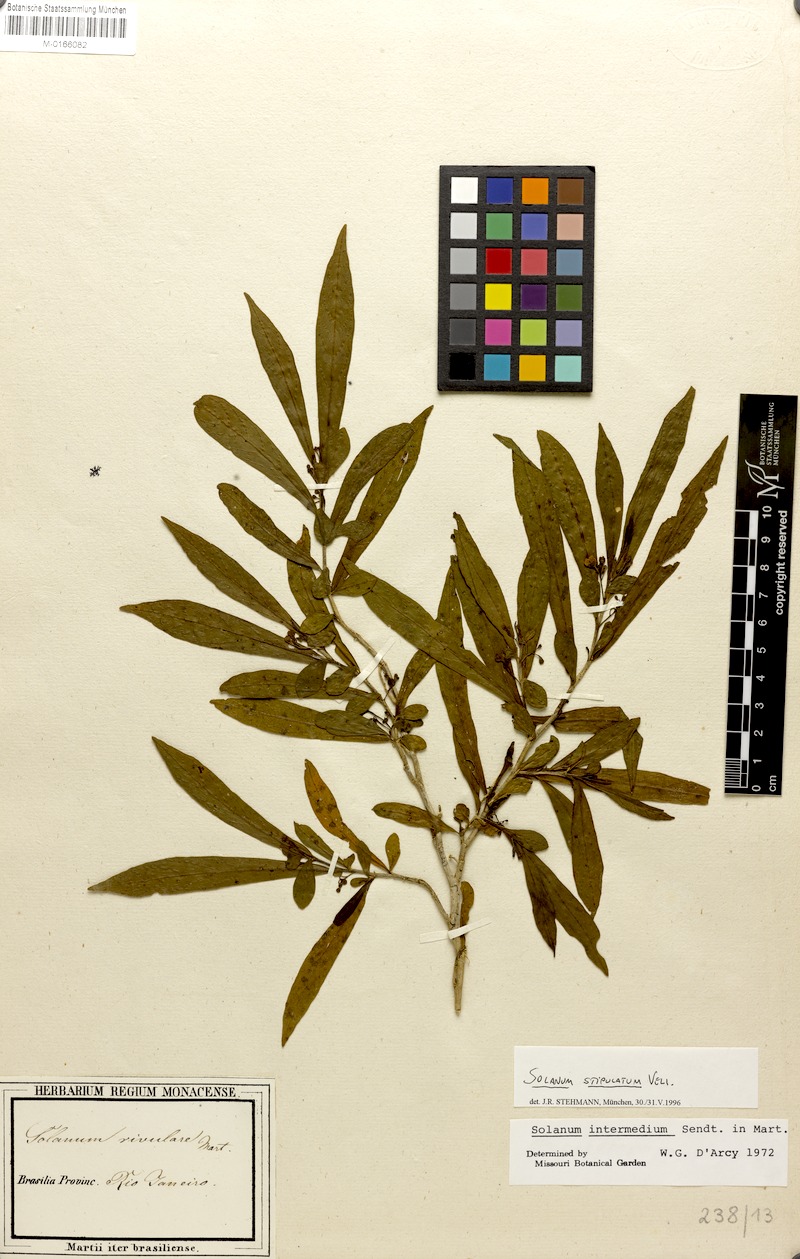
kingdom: Plantae
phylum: Tracheophyta
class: Magnoliopsida
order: Solanales
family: Solanaceae
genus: Solanum
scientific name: Solanum stipulatum
